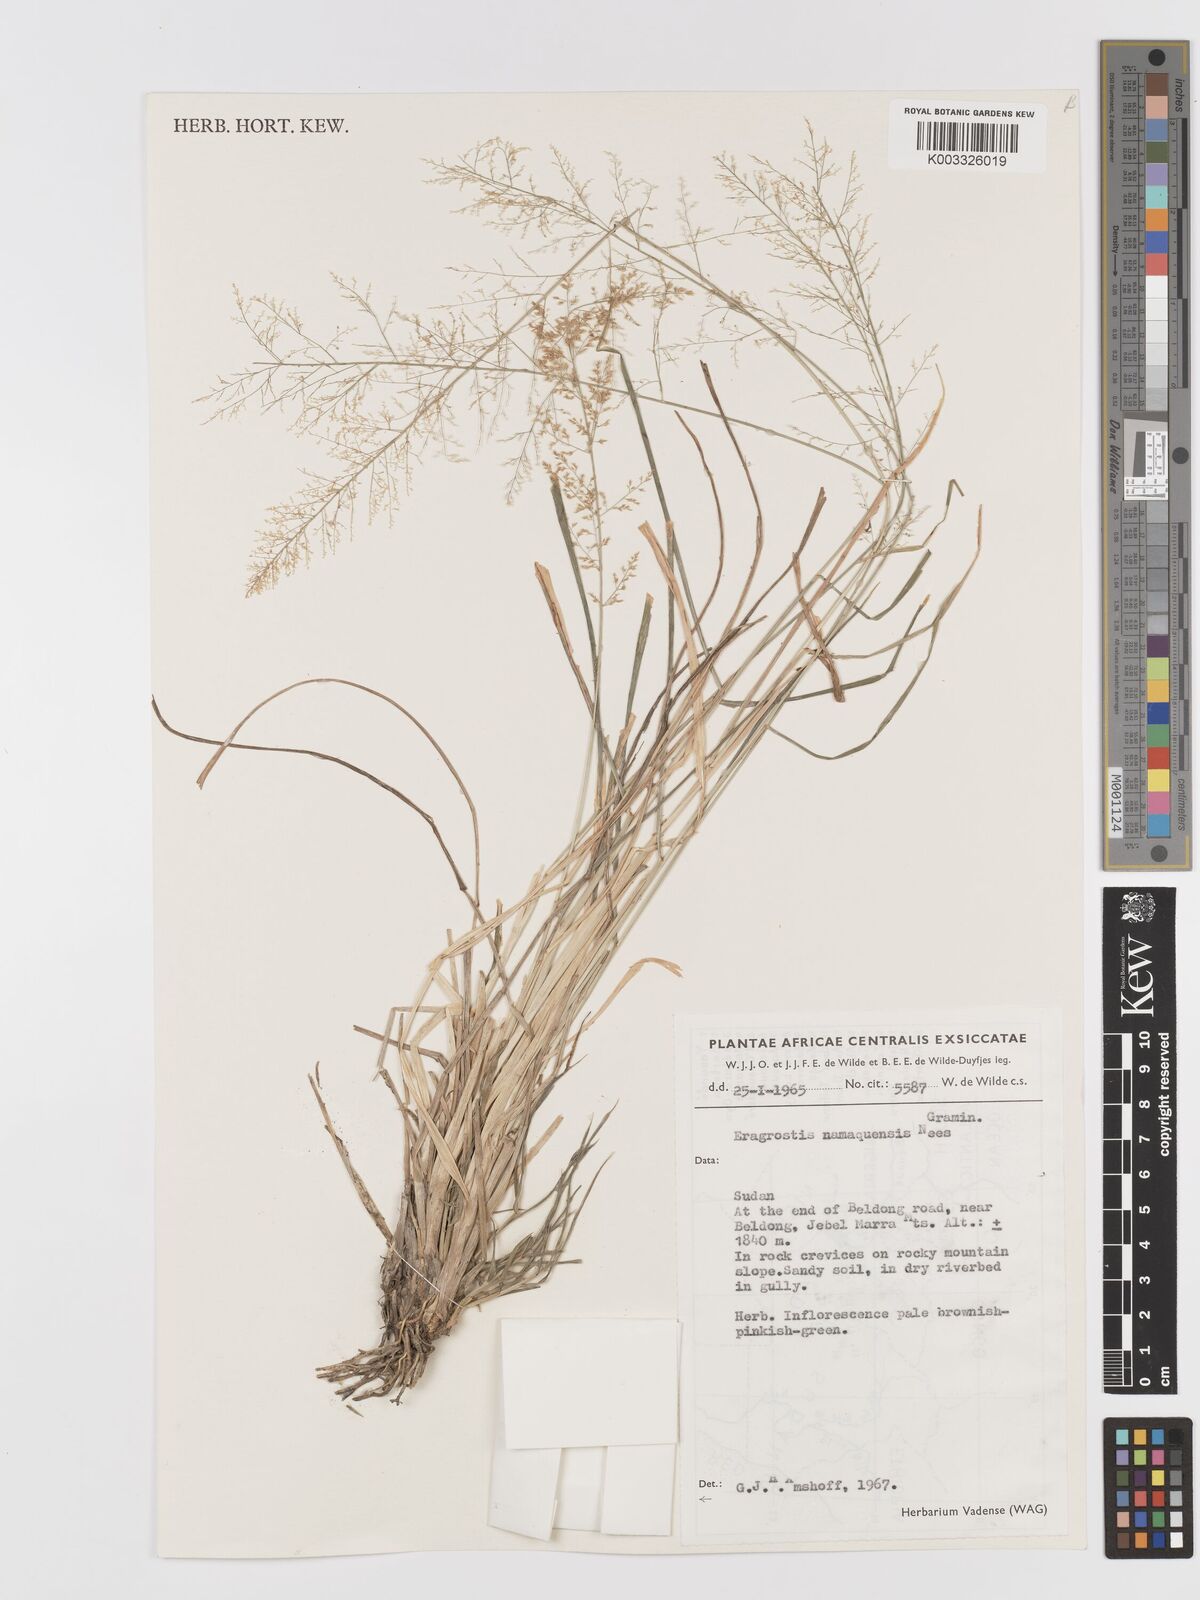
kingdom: Plantae
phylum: Tracheophyta
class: Liliopsida
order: Poales
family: Poaceae
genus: Eragrostis
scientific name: Eragrostis japonica
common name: Pond lovegrass
